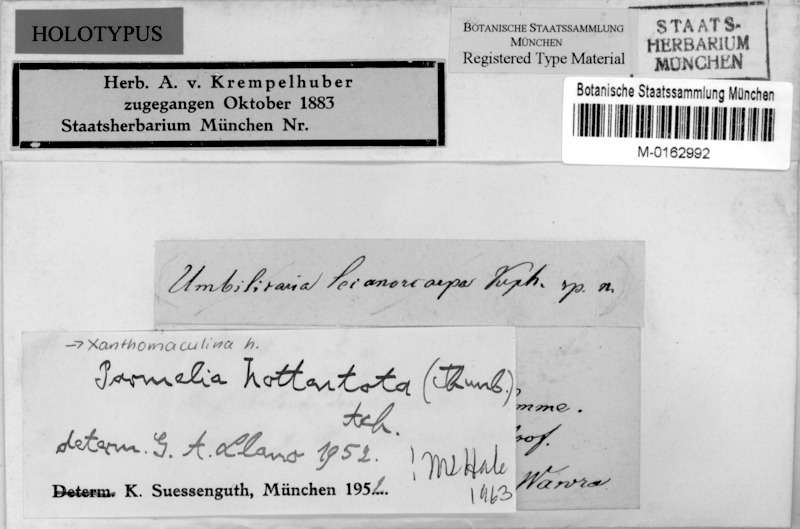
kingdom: Fungi
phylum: Ascomycota
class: Lecanoromycetes
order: Lecanorales
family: Parmeliaceae
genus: Xanthoparmelia
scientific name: Xanthoparmelia hottentotta
